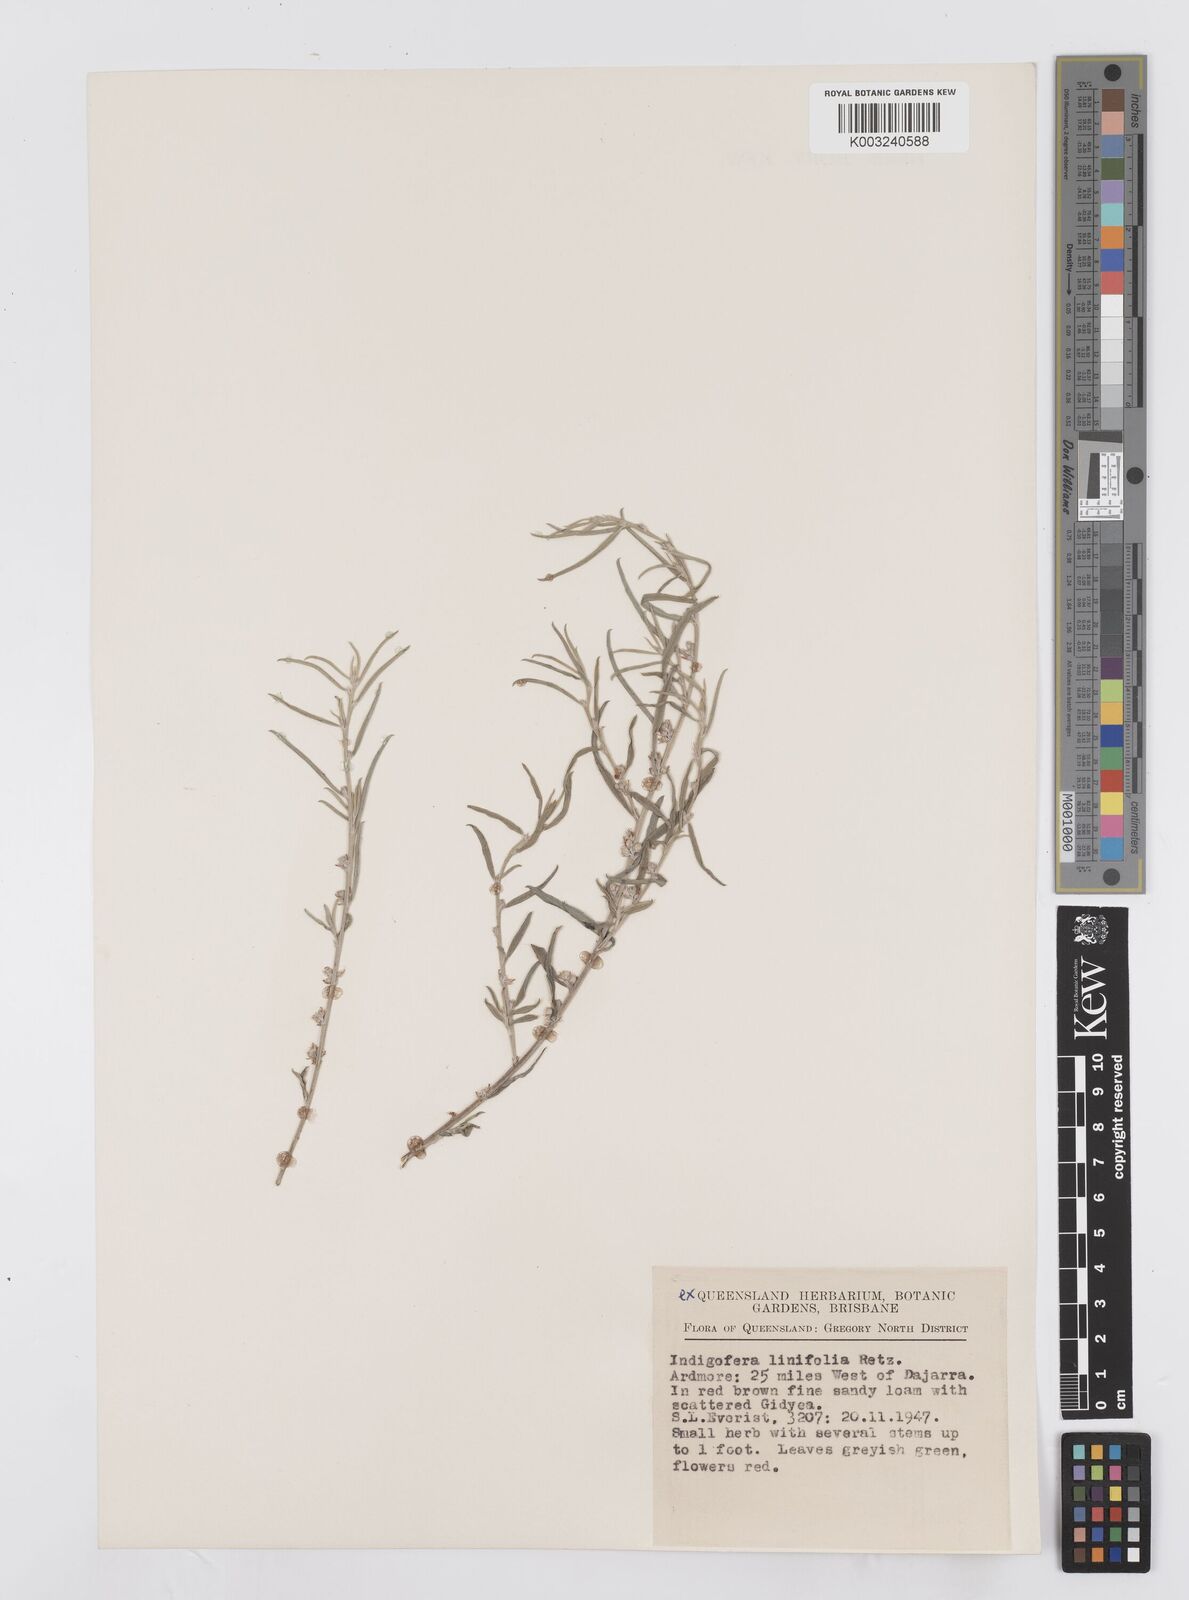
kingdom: Plantae
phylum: Tracheophyta
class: Magnoliopsida
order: Fabales
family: Fabaceae
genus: Indigofera
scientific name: Indigofera linifolia
